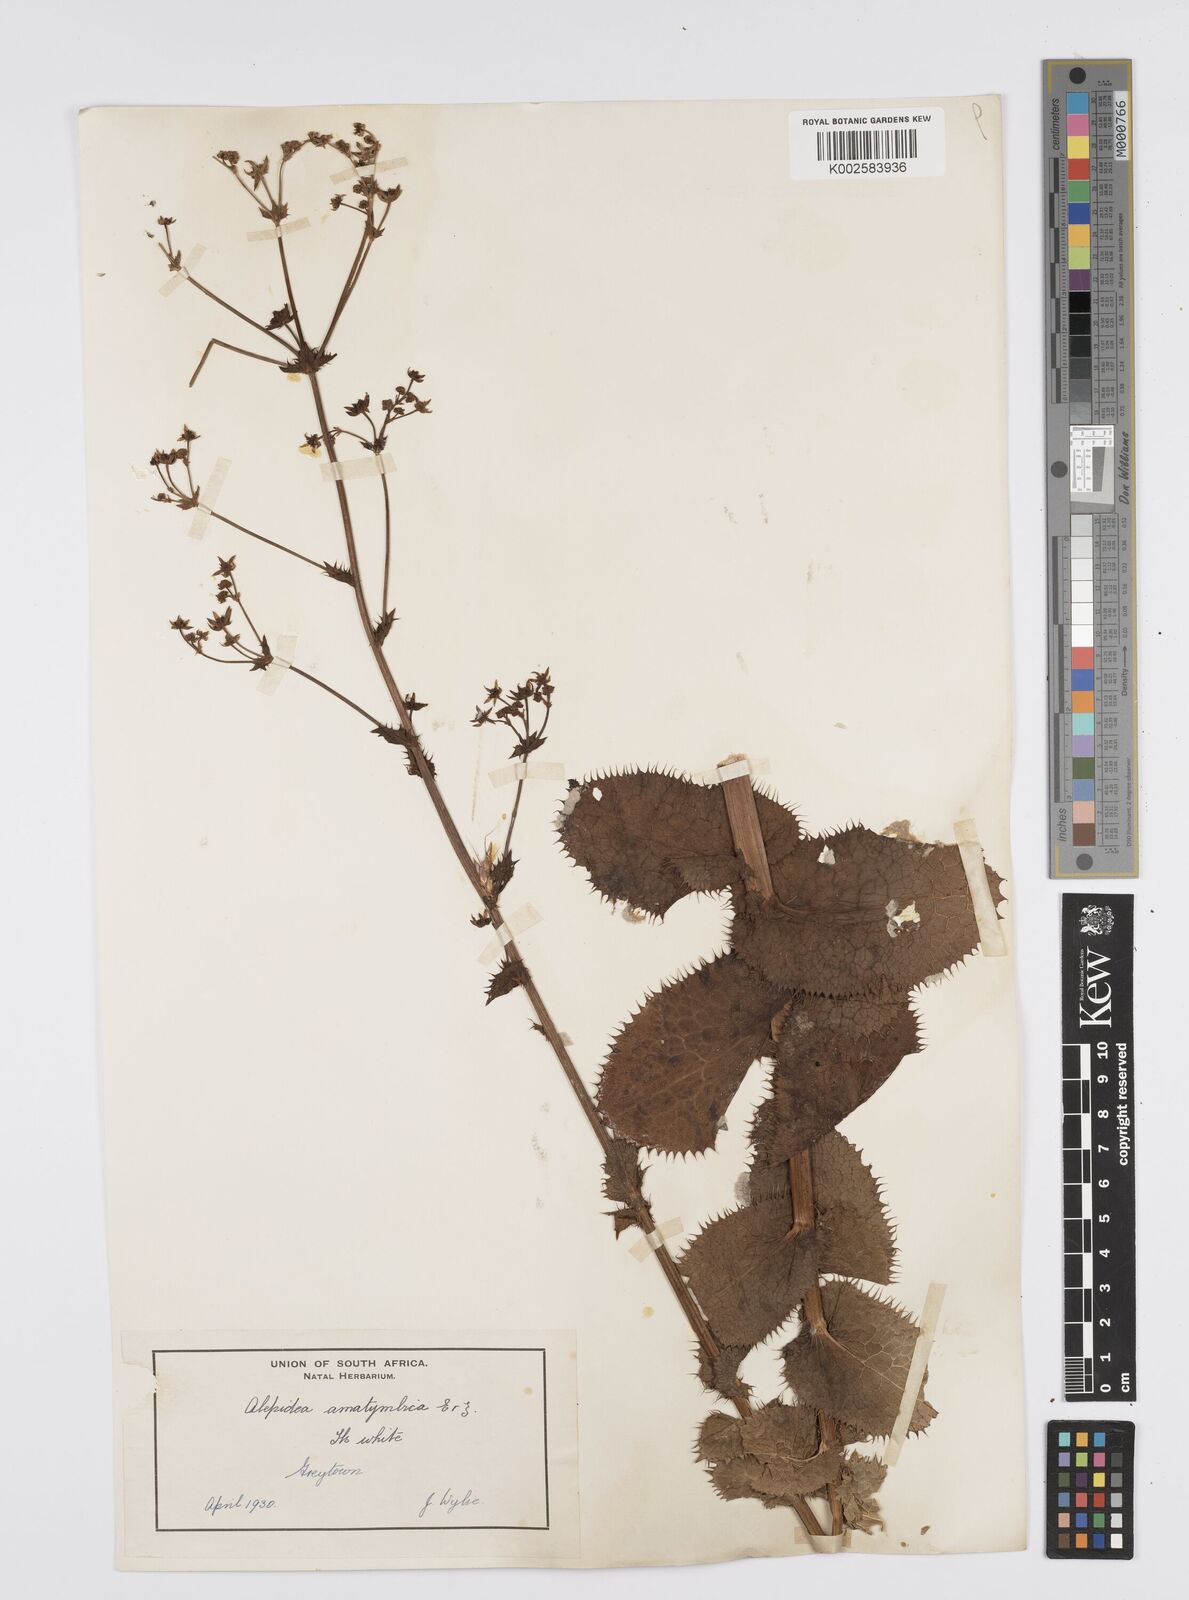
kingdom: Plantae
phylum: Tracheophyta
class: Magnoliopsida
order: Apiales
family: Apiaceae
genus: Alepidea
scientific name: Alepidea amatymbica
